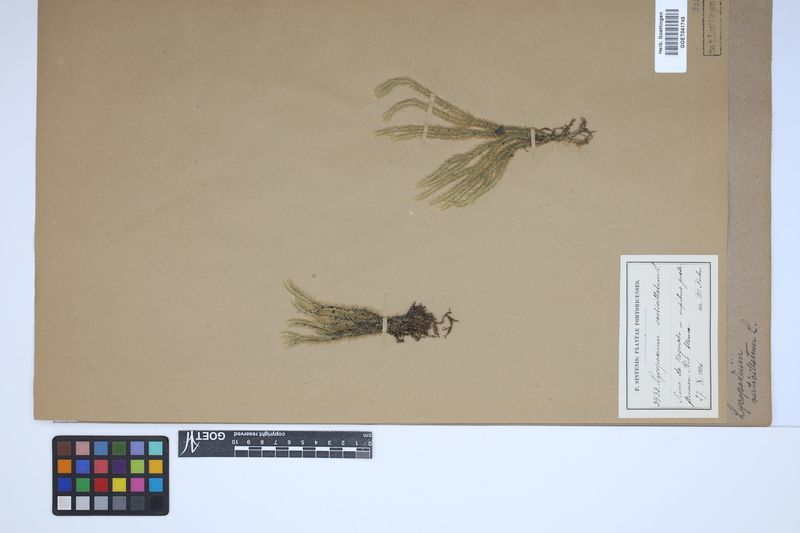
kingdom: Plantae
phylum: Tracheophyta
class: Lycopodiopsida
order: Lycopodiales
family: Lycopodiaceae
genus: Phlegmariurus
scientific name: Phlegmariurus verticillatus
